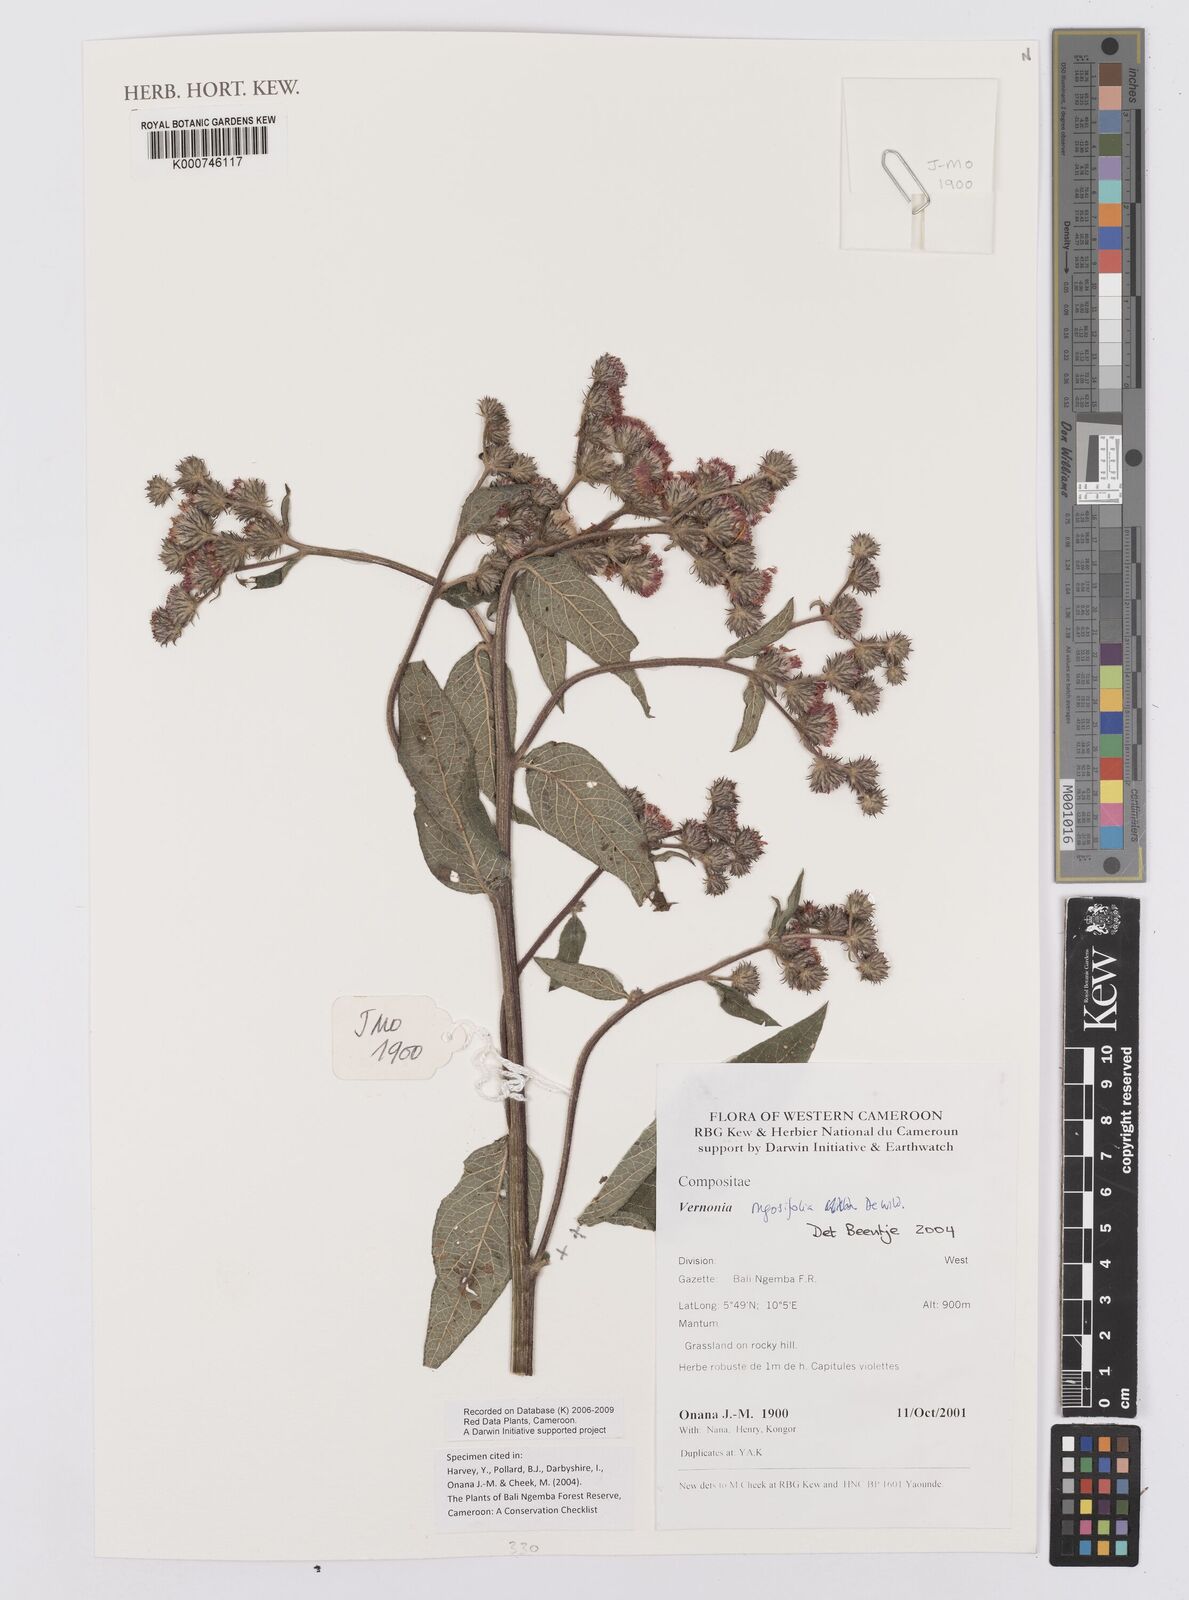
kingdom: Plantae
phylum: Tracheophyta
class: Magnoliopsida
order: Asterales
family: Asteraceae
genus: Orbivestus
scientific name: Orbivestus turbinata
